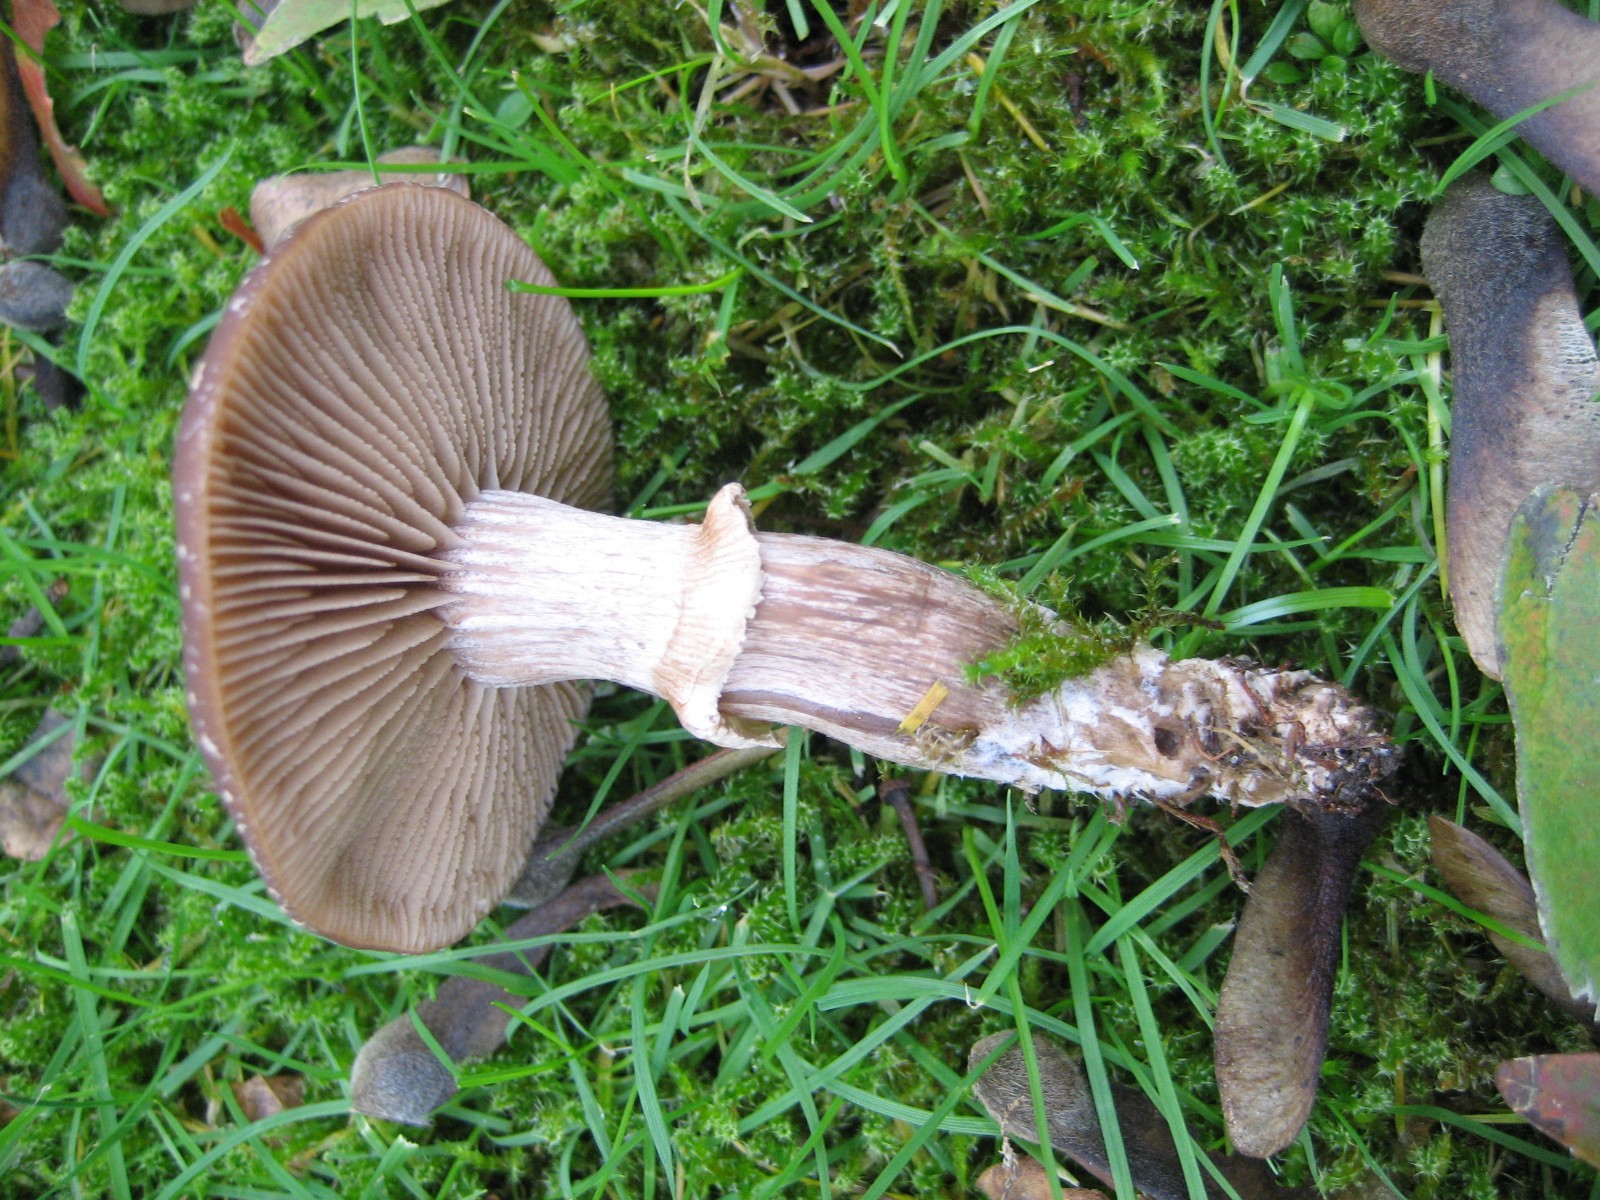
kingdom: Fungi
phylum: Basidiomycota
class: Agaricomycetes
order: Agaricales
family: Tubariaceae
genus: Cyclocybe
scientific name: Cyclocybe erebia
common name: mørk agerhat
